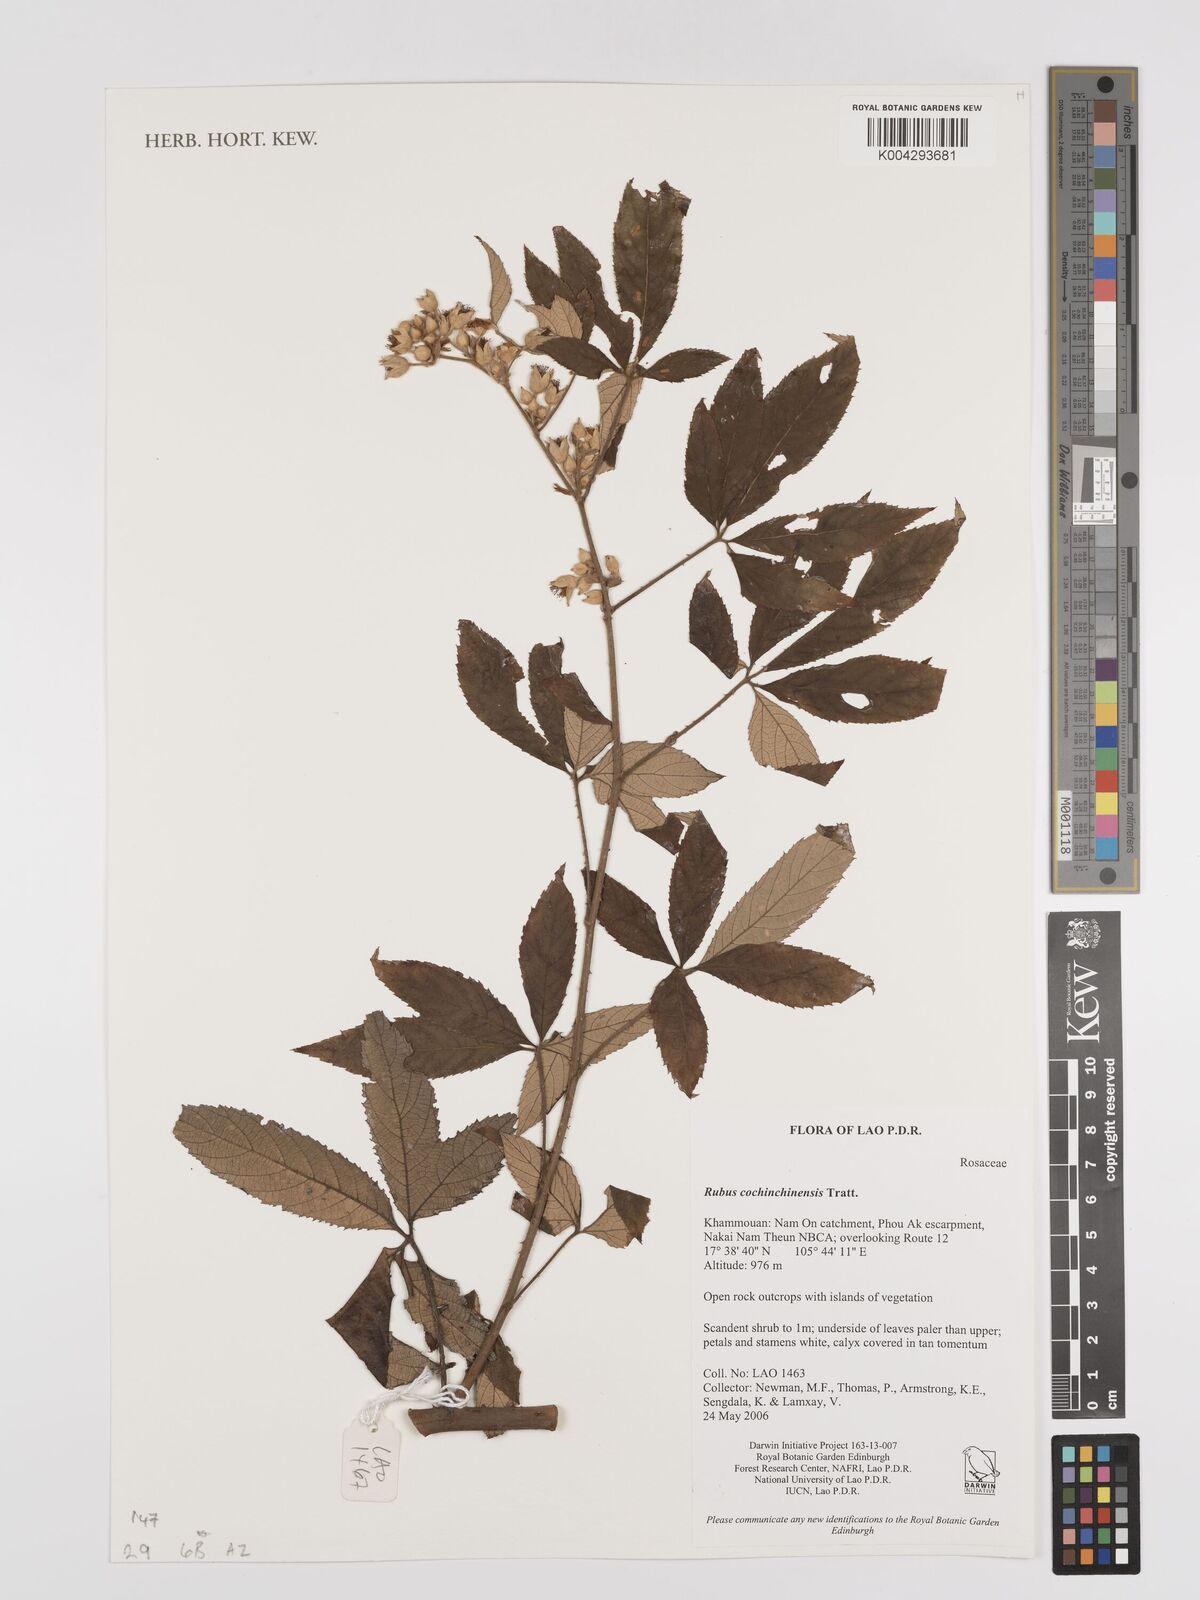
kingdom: Plantae
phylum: Tracheophyta
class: Magnoliopsida
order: Rosales
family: Rosaceae
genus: Rubus
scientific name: Rubus cochinchinensis
